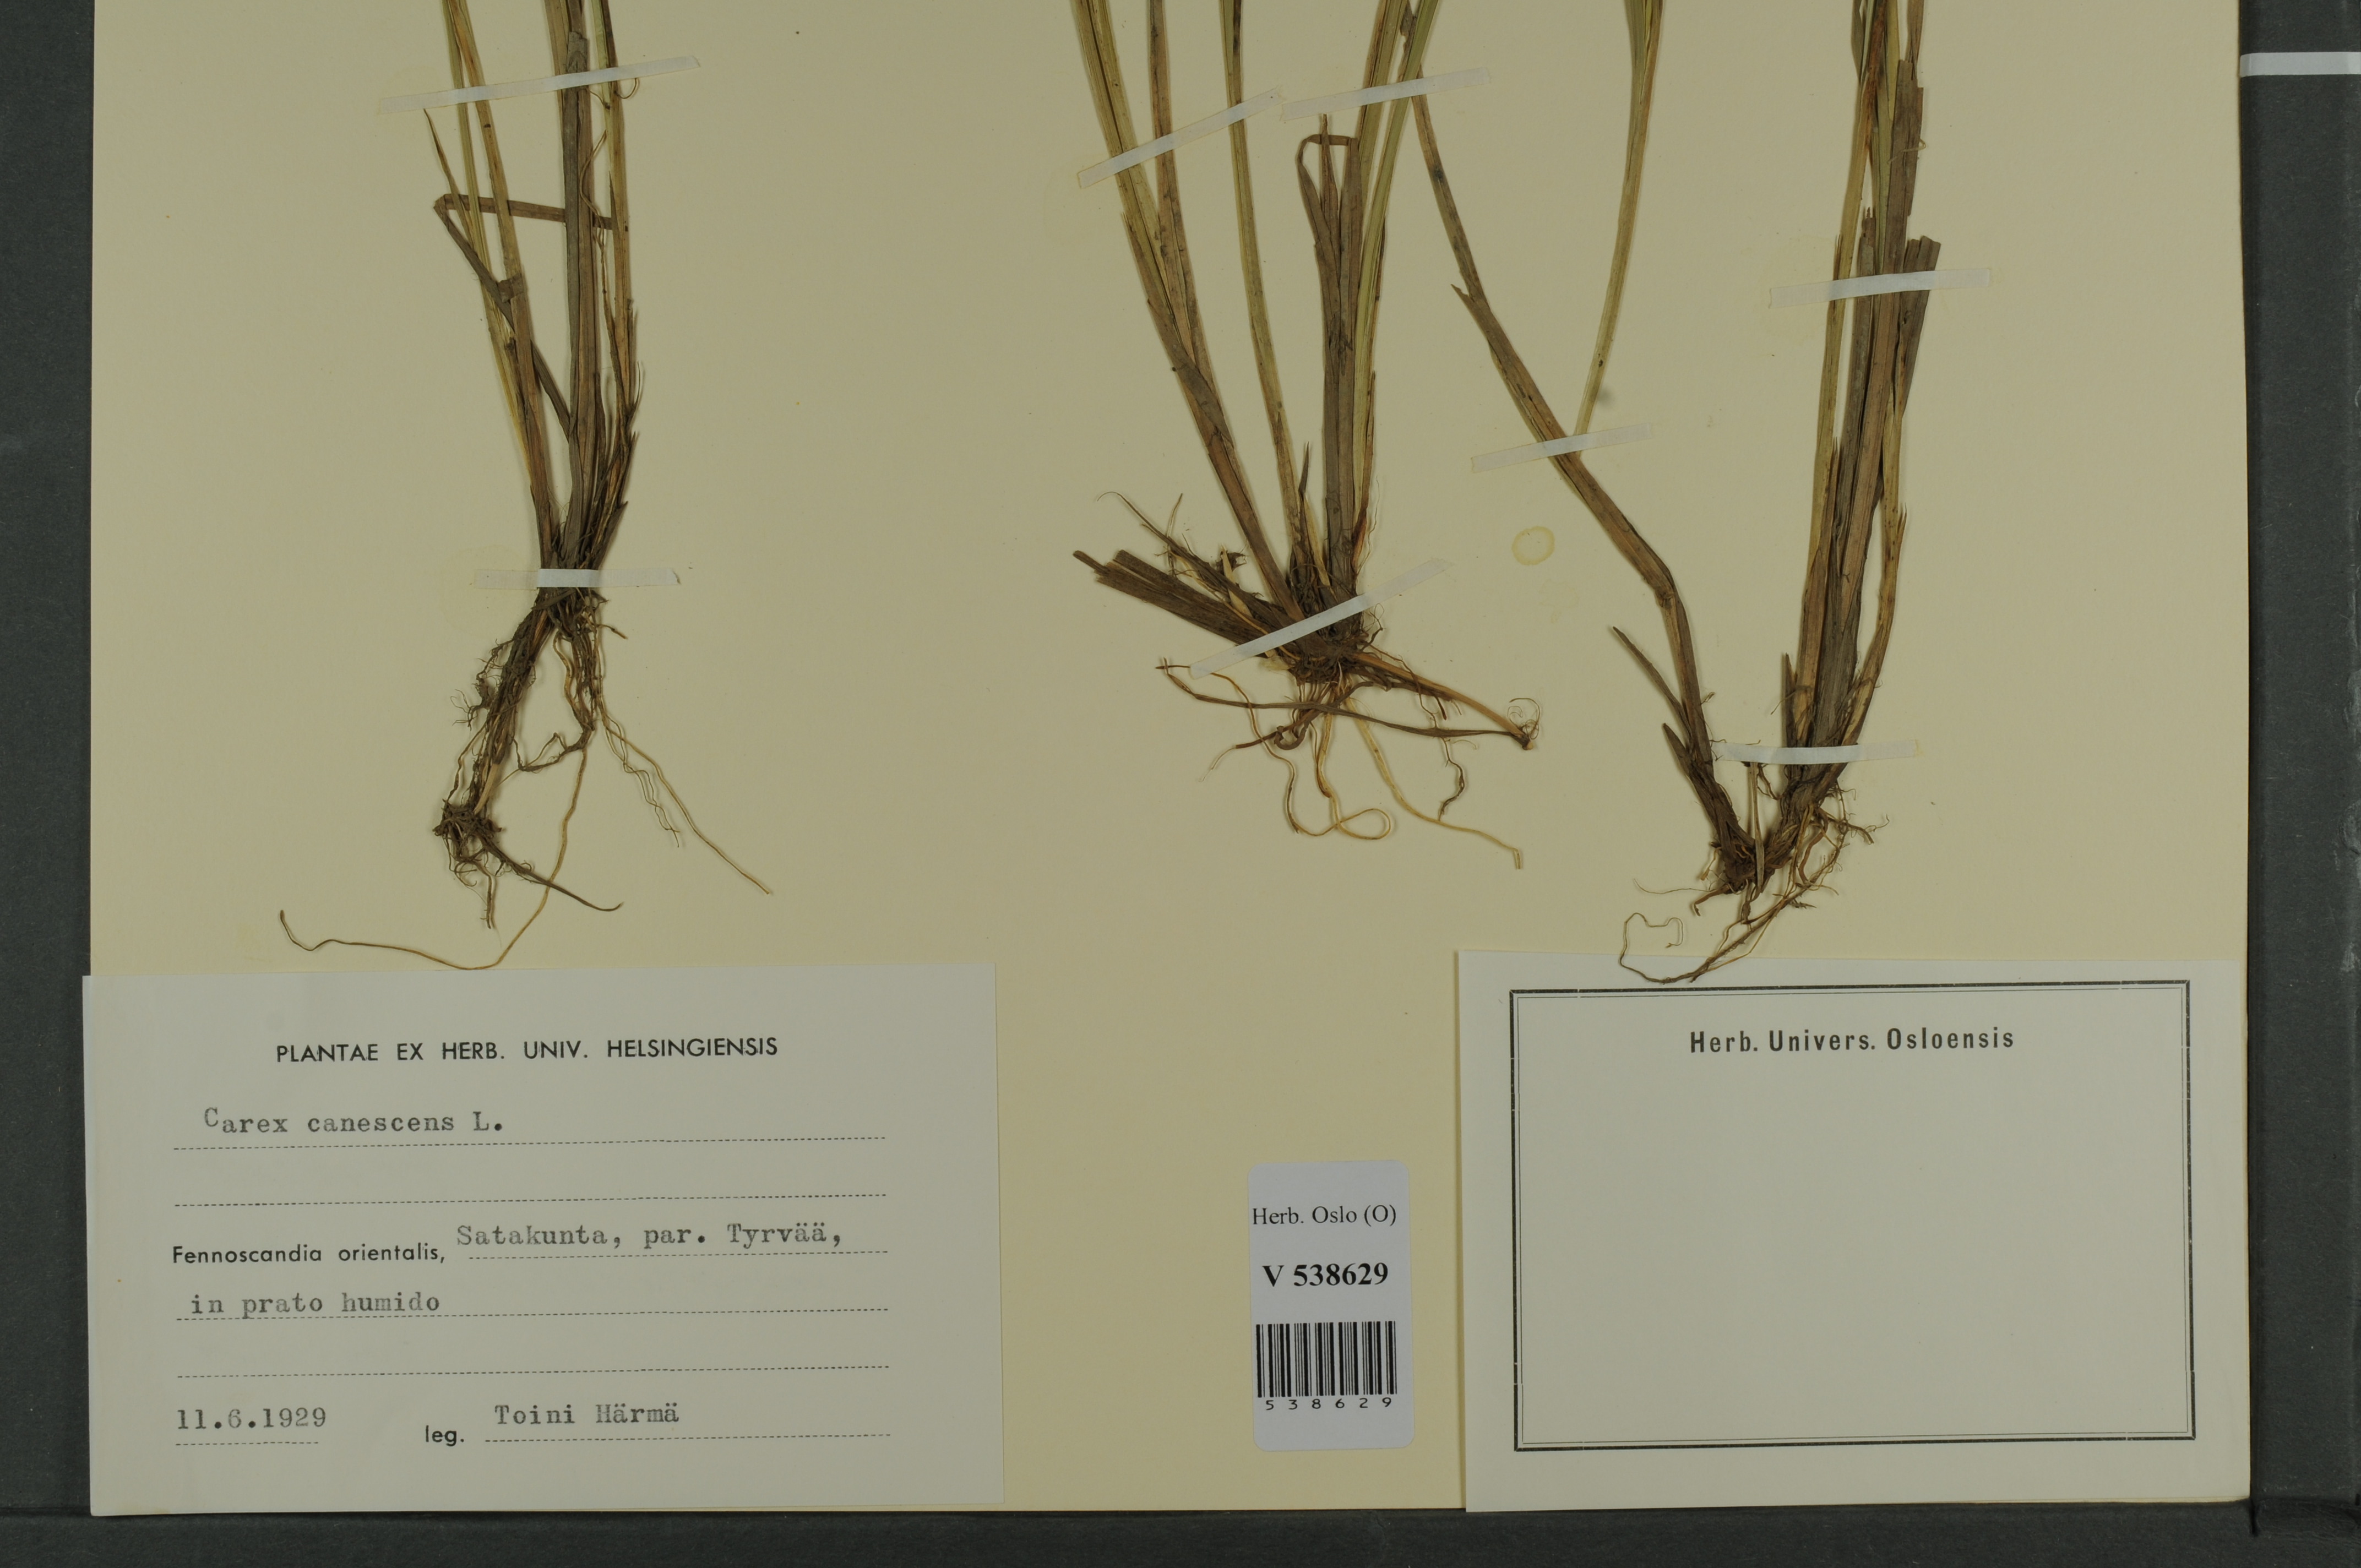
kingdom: Plantae
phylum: Tracheophyta
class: Liliopsida
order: Poales
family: Cyperaceae
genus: Carex
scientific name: Carex canescens
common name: White sedge
